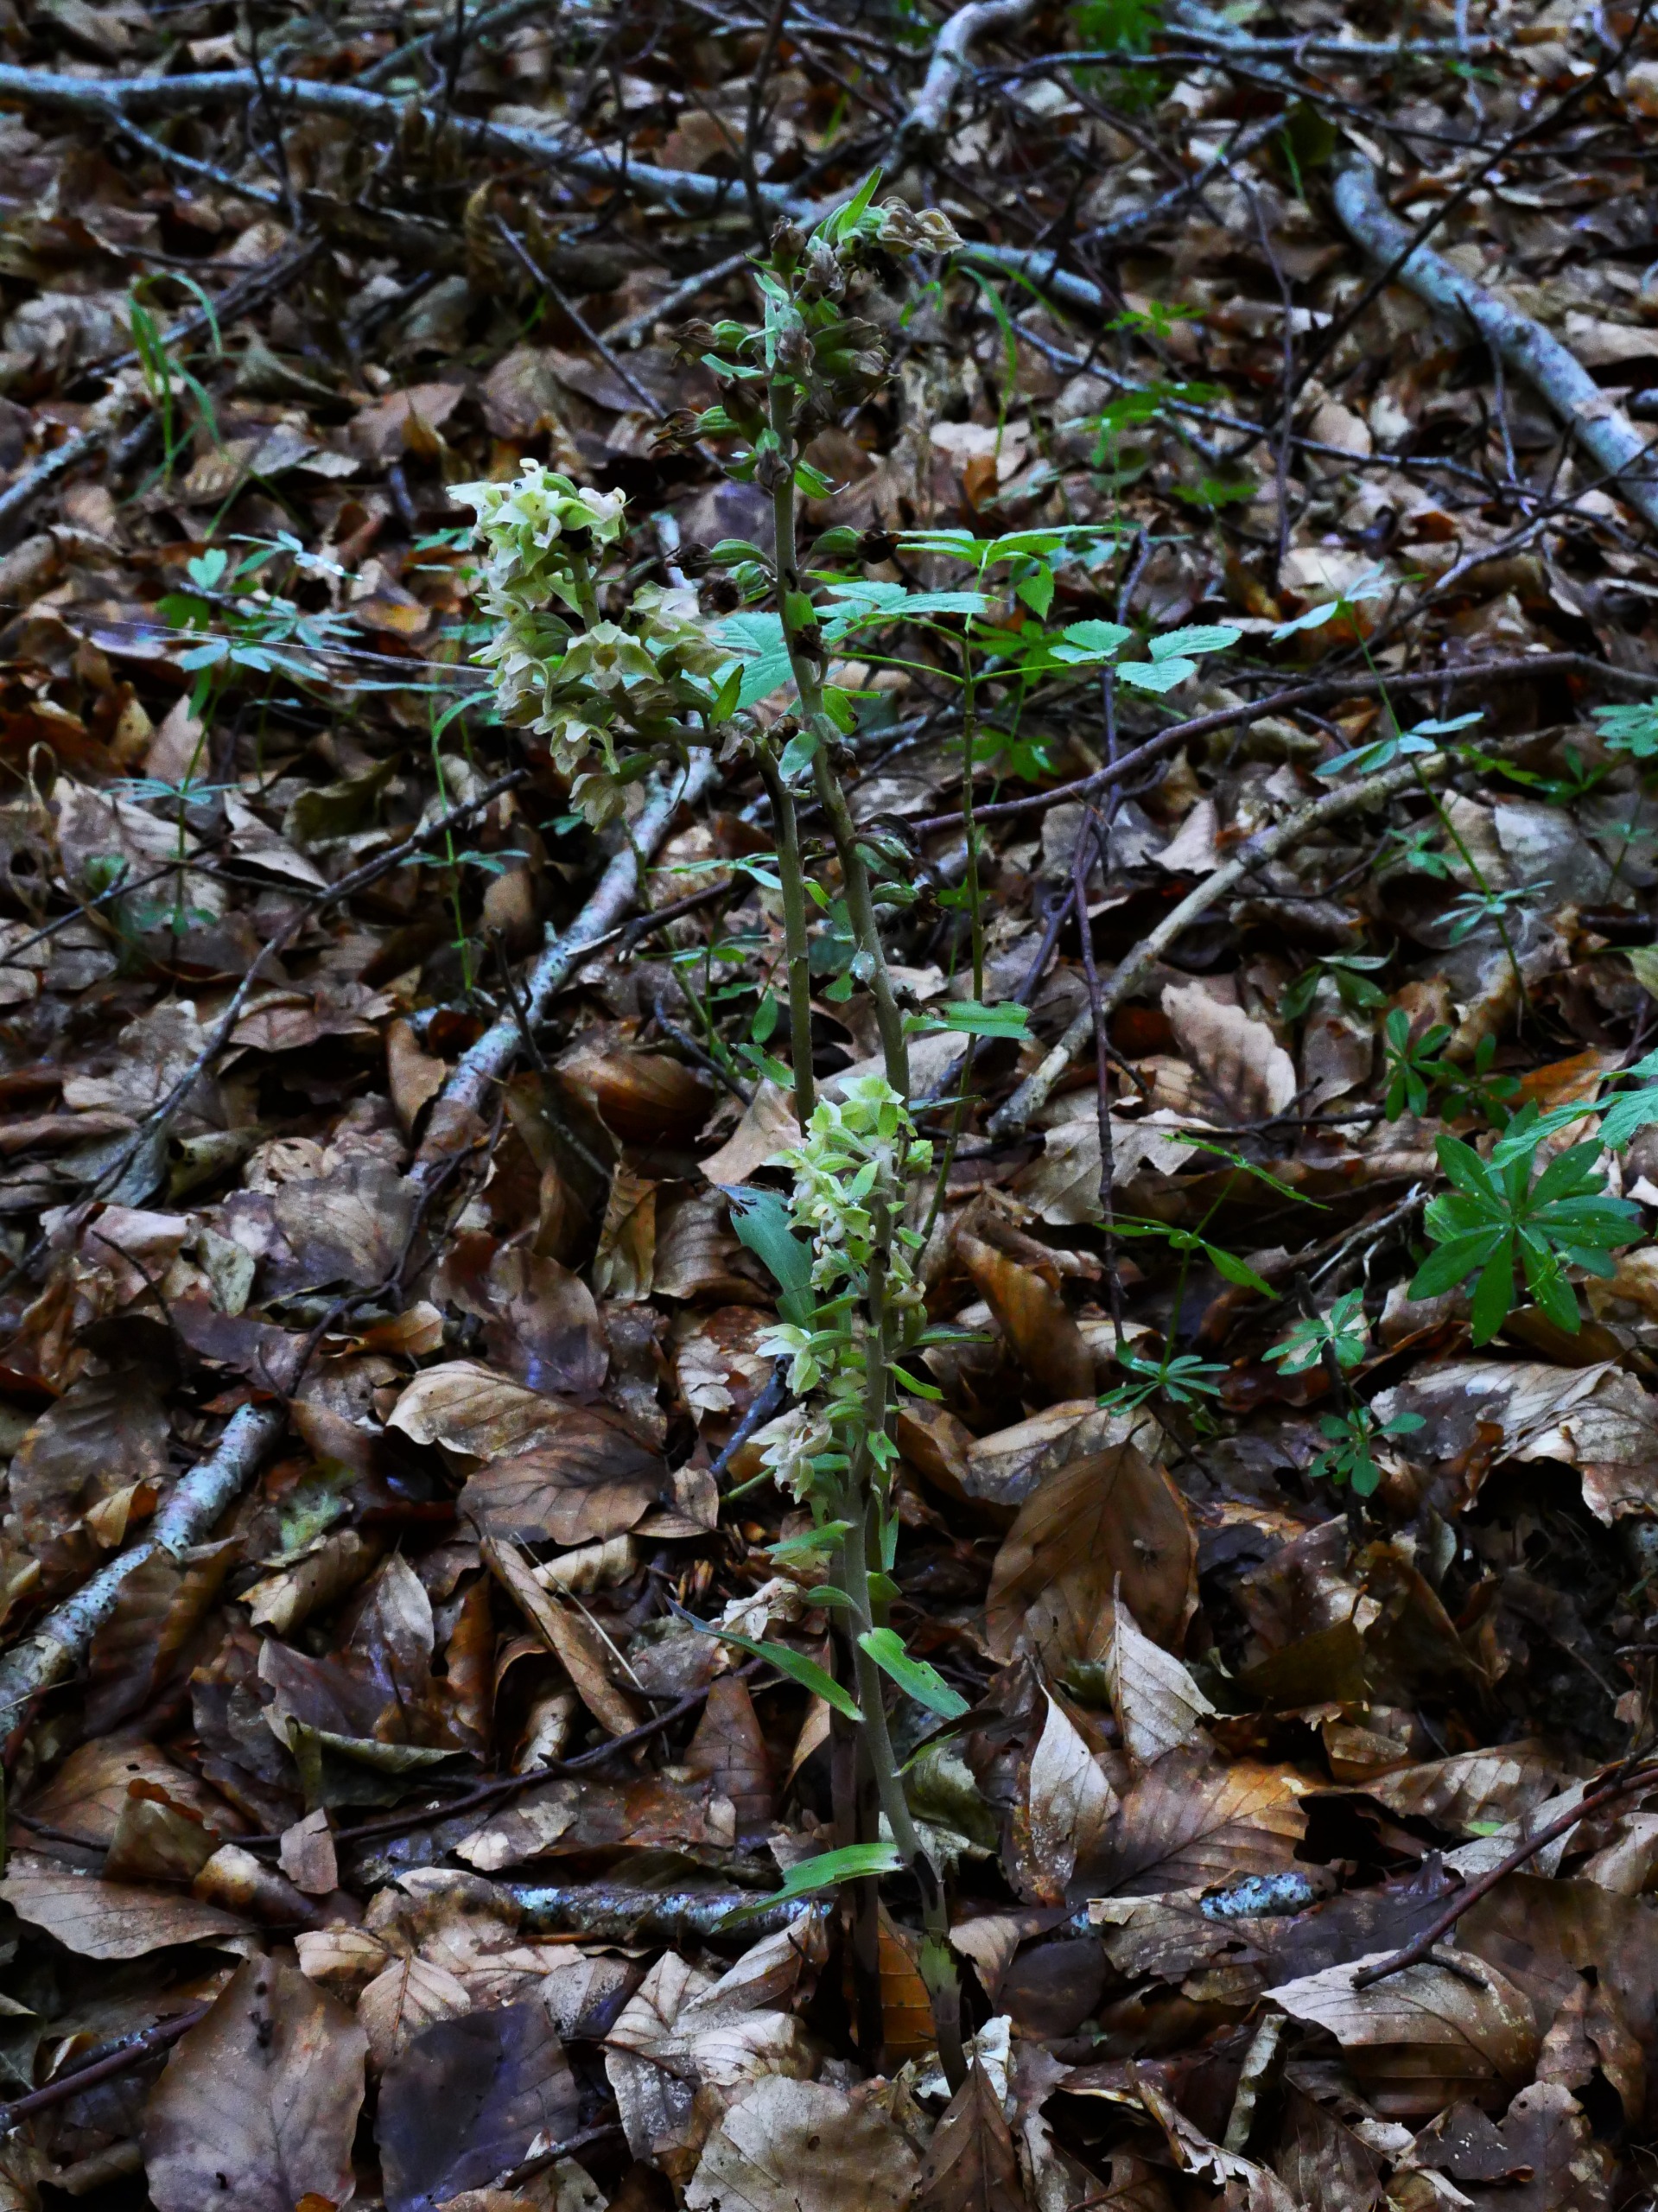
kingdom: Plantae
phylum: Tracheophyta
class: Liliopsida
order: Asparagales
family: Orchidaceae
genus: Epipactis
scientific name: Epipactis purpurata
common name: Tætblomstret hullæbe
